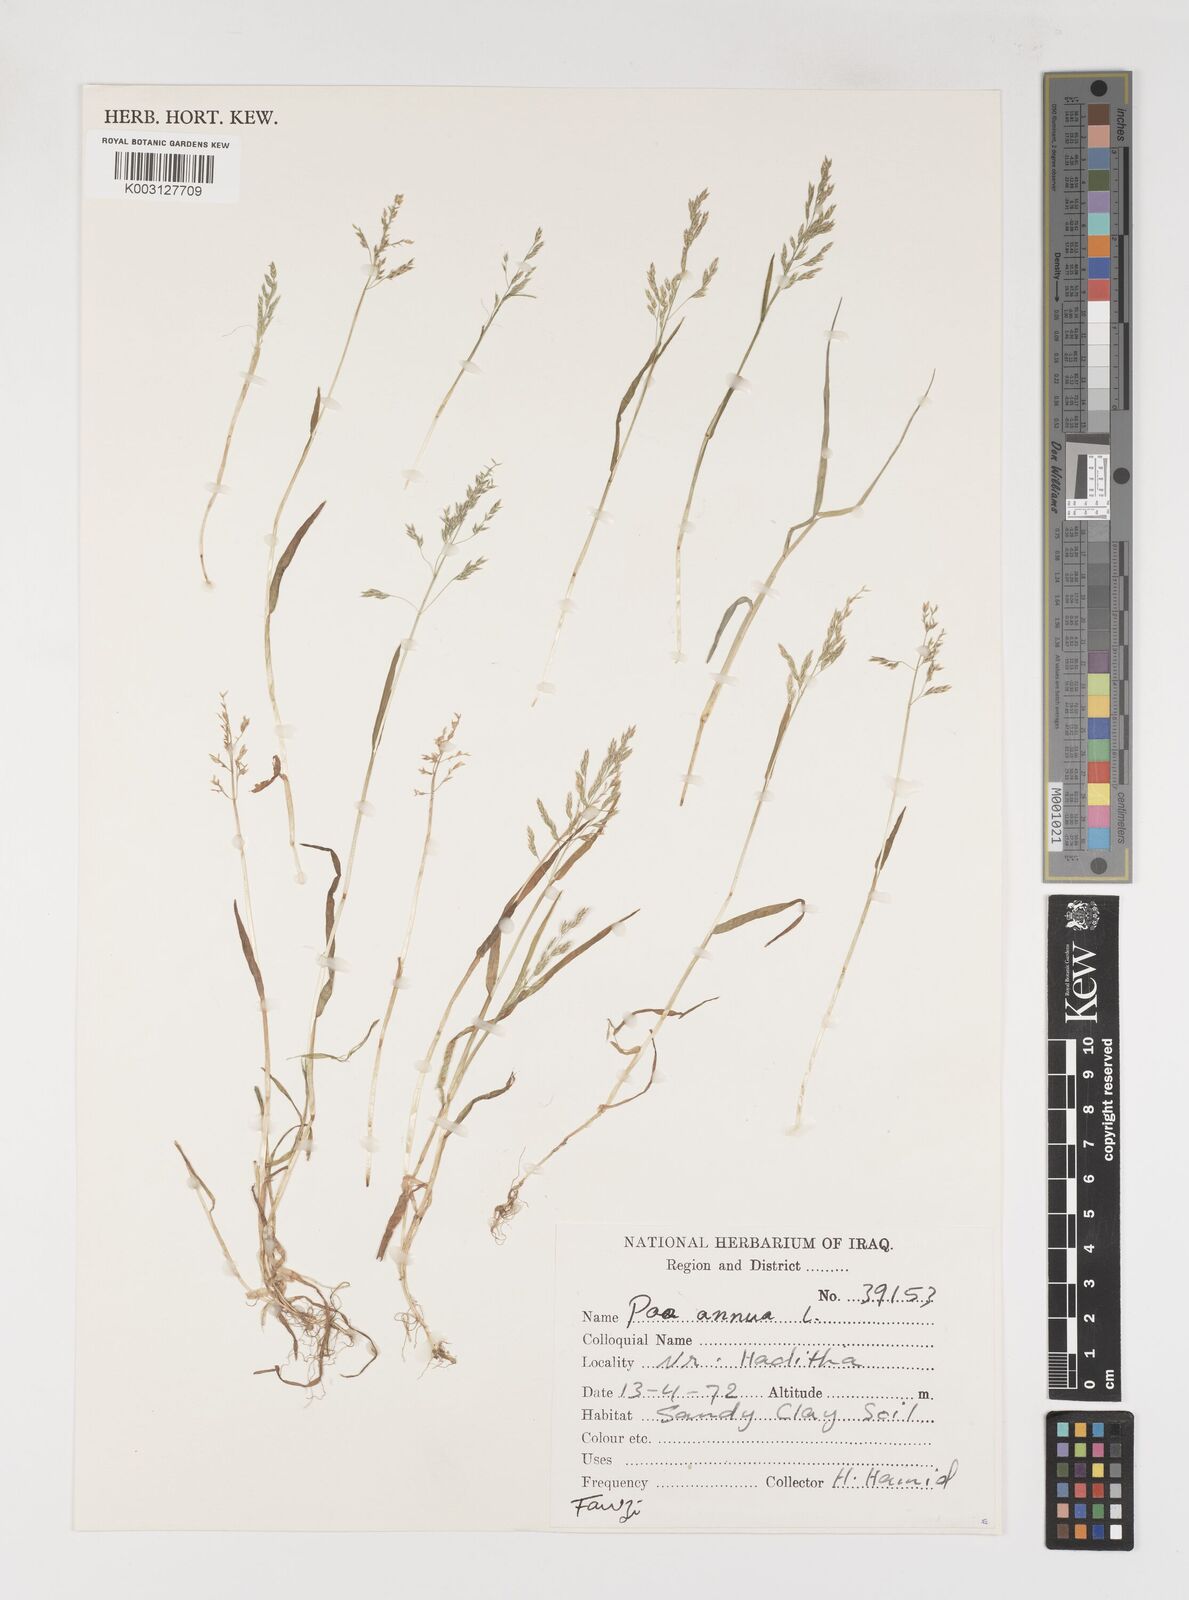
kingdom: Plantae
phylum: Tracheophyta
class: Liliopsida
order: Poales
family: Poaceae
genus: Poa
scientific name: Poa annua
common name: Annual bluegrass
